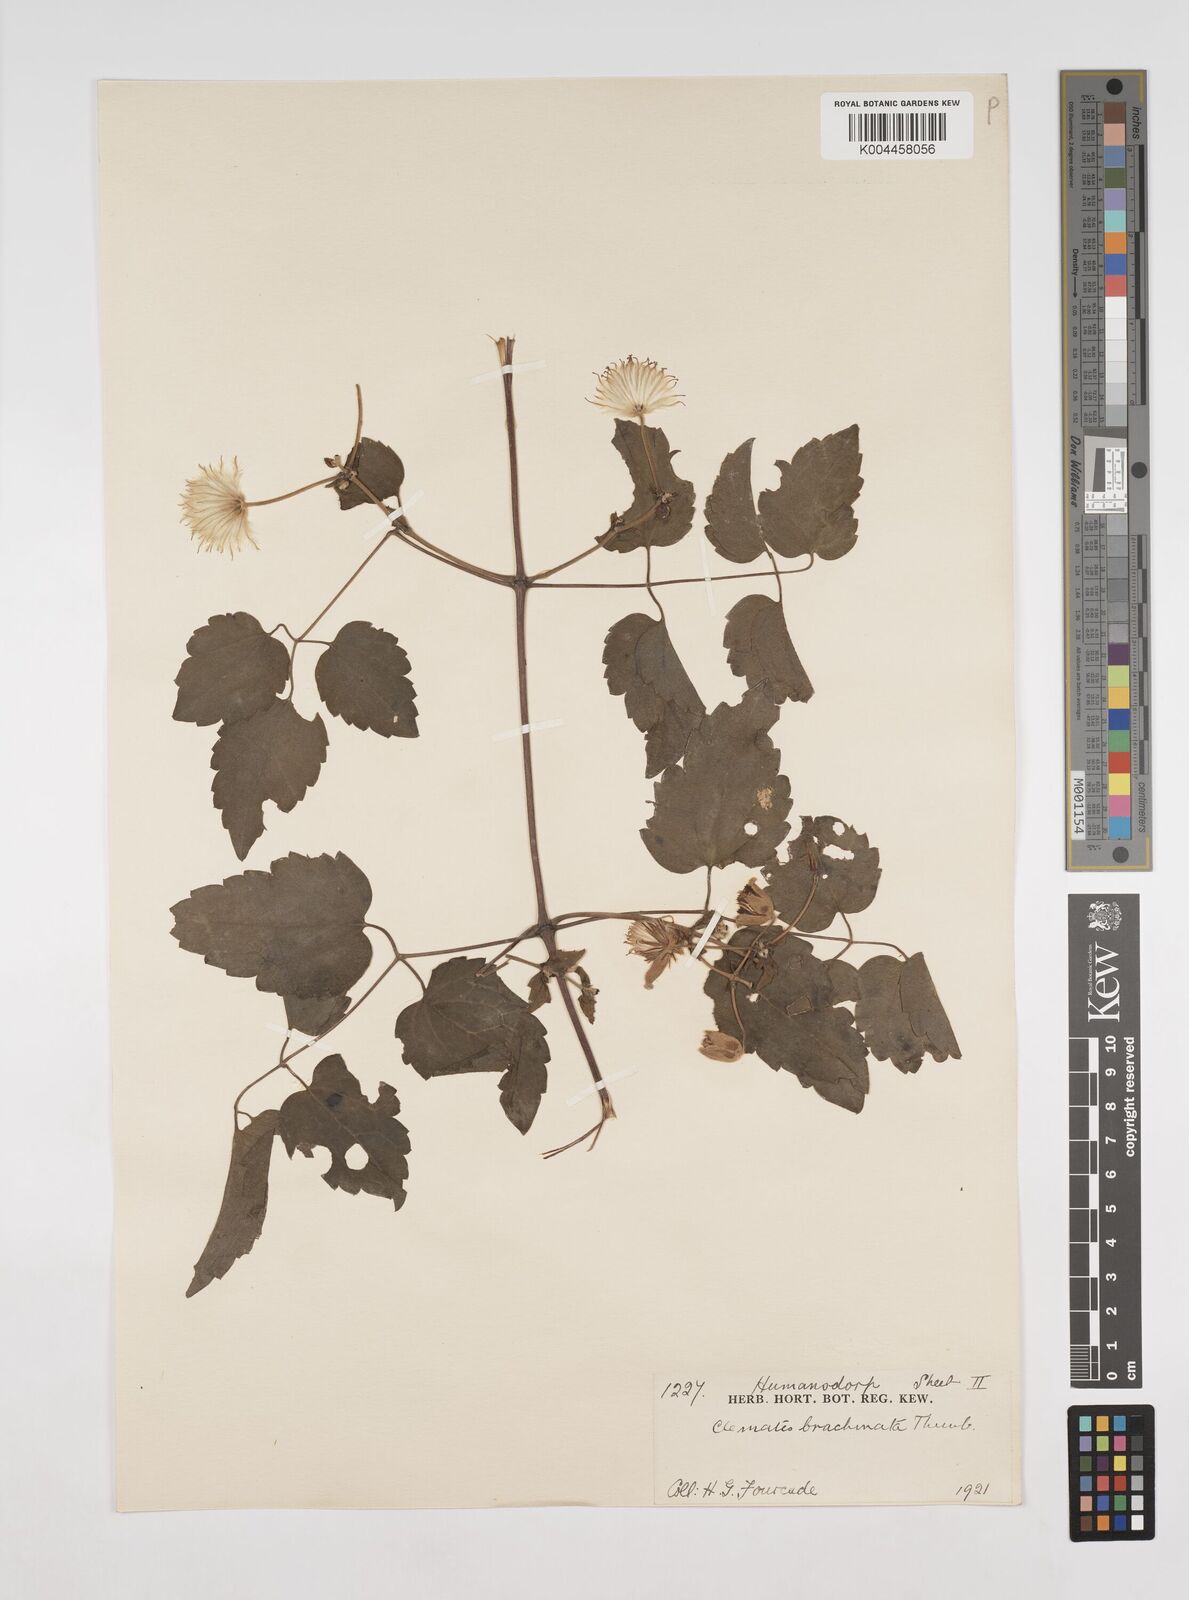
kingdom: Plantae
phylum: Tracheophyta
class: Magnoliopsida
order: Ranunculales
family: Ranunculaceae
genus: Clematis
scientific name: Clematis brachiata
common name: Traveler's-joy
